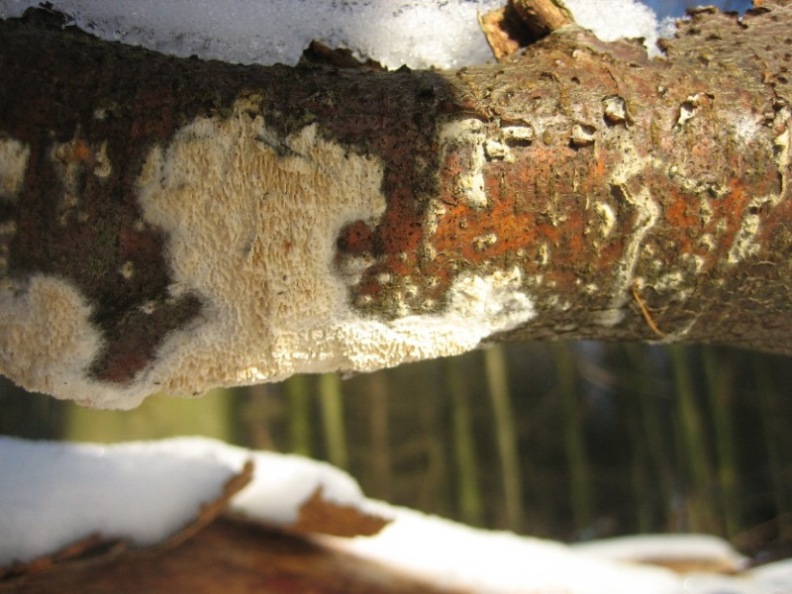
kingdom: Fungi
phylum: Basidiomycota
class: Agaricomycetes
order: Hymenochaetales
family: Schizoporaceae
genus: Schizopora
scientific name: Schizopora paradoxa
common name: hvid tandsvamp
